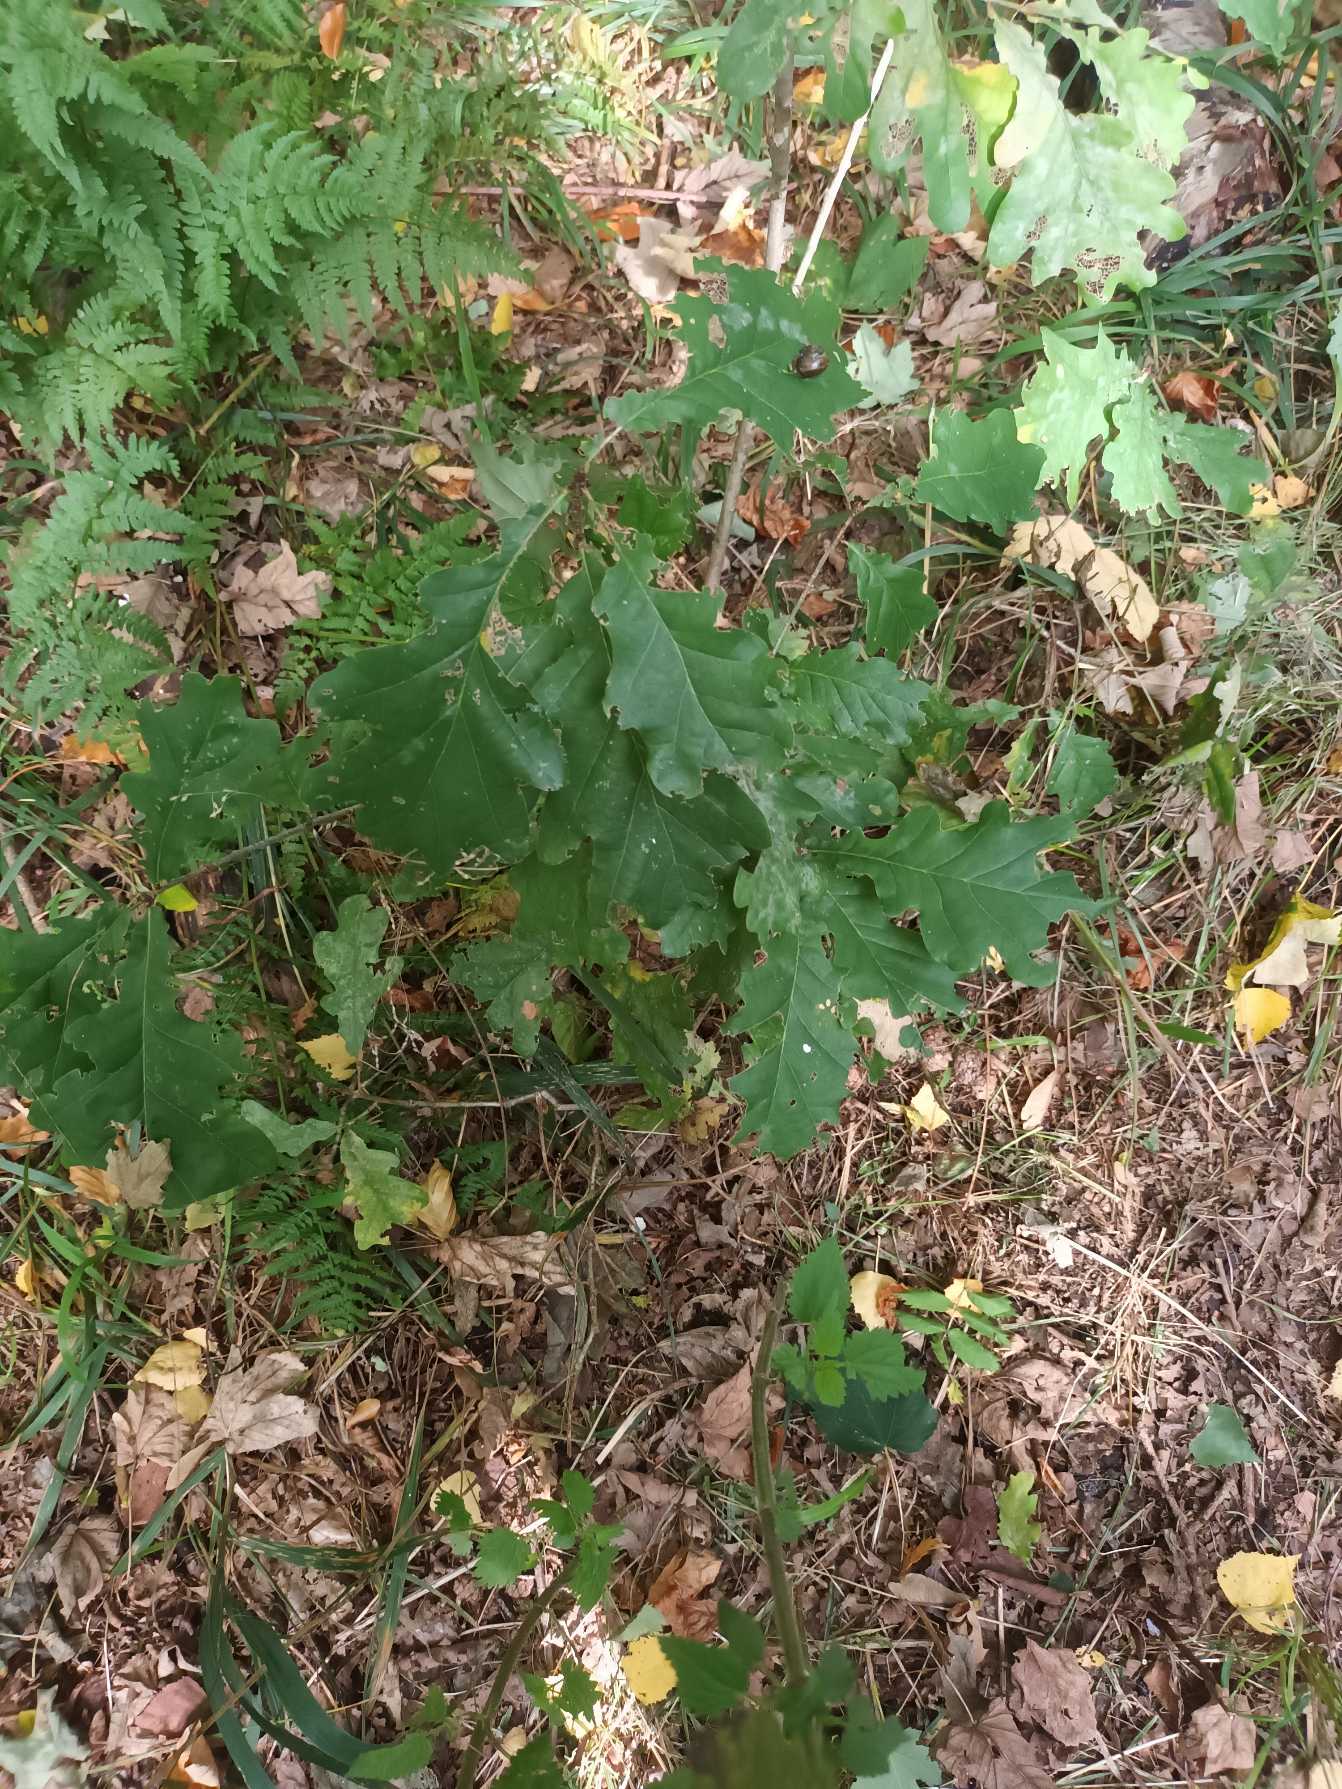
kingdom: Plantae
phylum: Tracheophyta
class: Magnoliopsida
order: Fagales
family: Fagaceae
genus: Quercus
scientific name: Quercus robur
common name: Stilk-eg/almindelig eg
